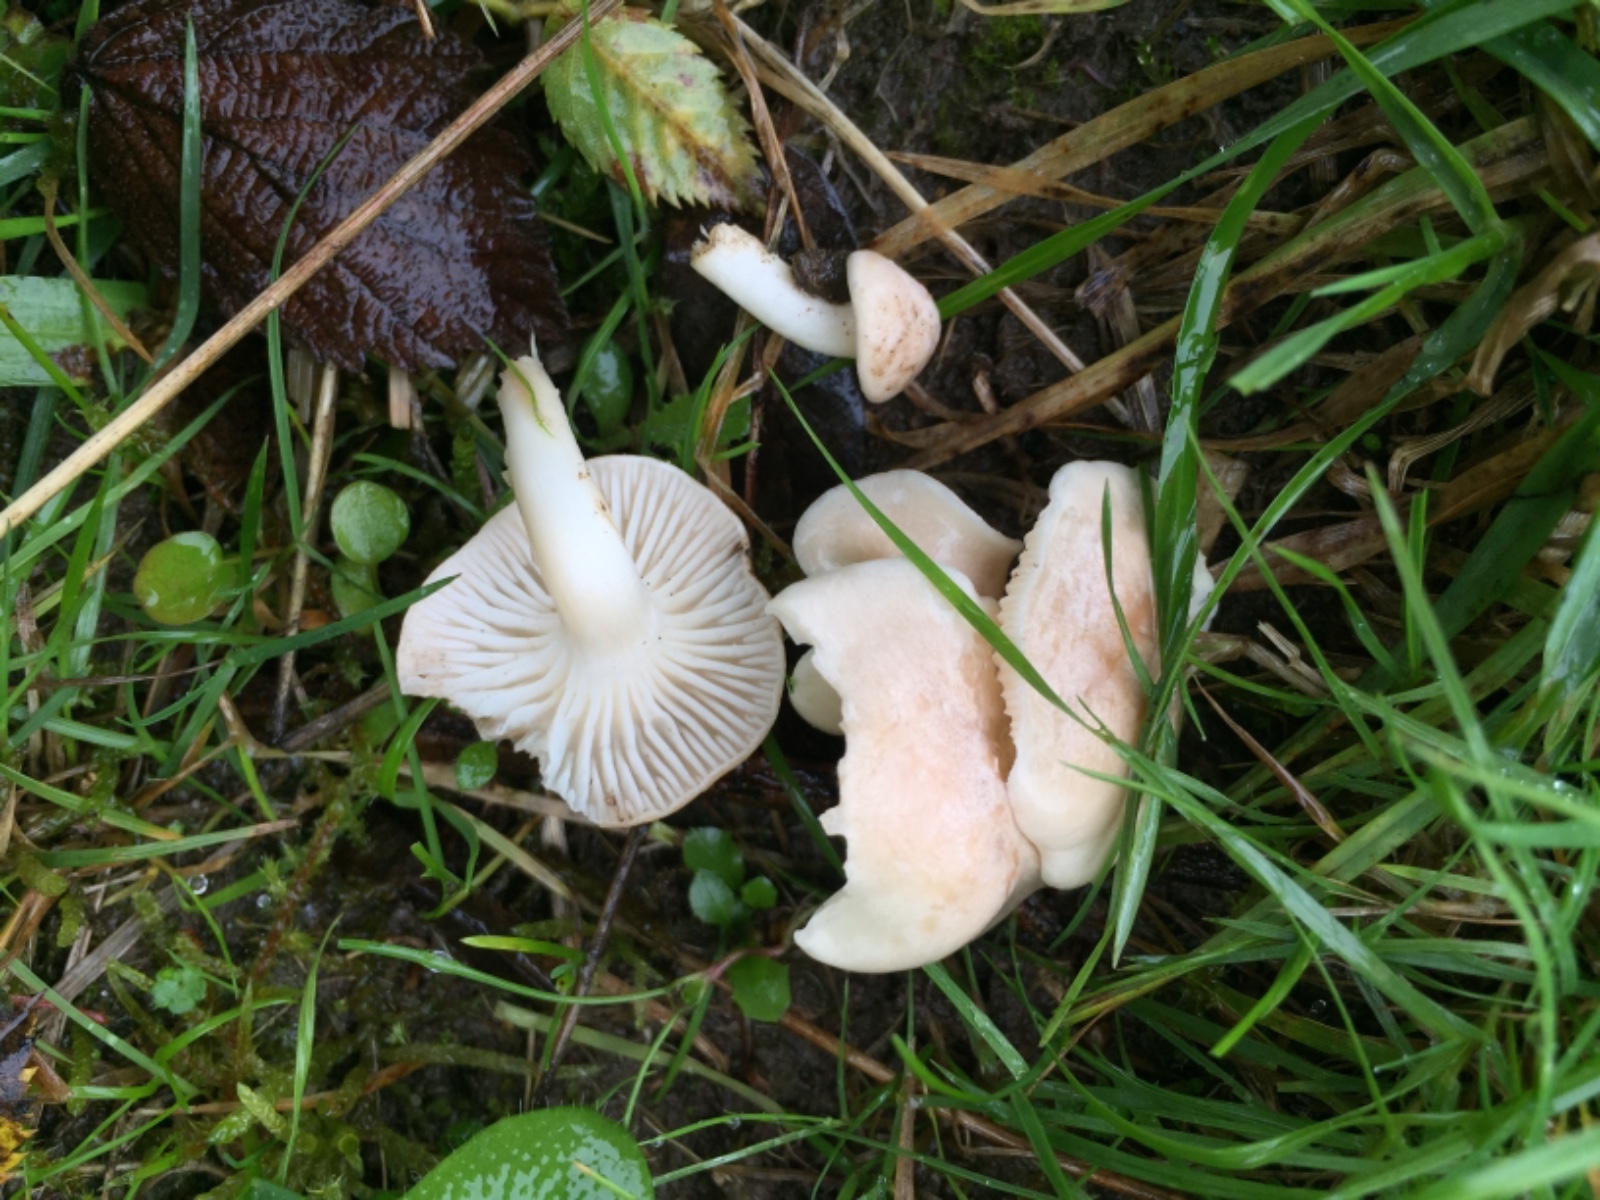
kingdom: Fungi
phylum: Basidiomycota
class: Agaricomycetes
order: Agaricales
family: Hygrophoraceae
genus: Cuphophyllus
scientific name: Cuphophyllus
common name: vokshat
